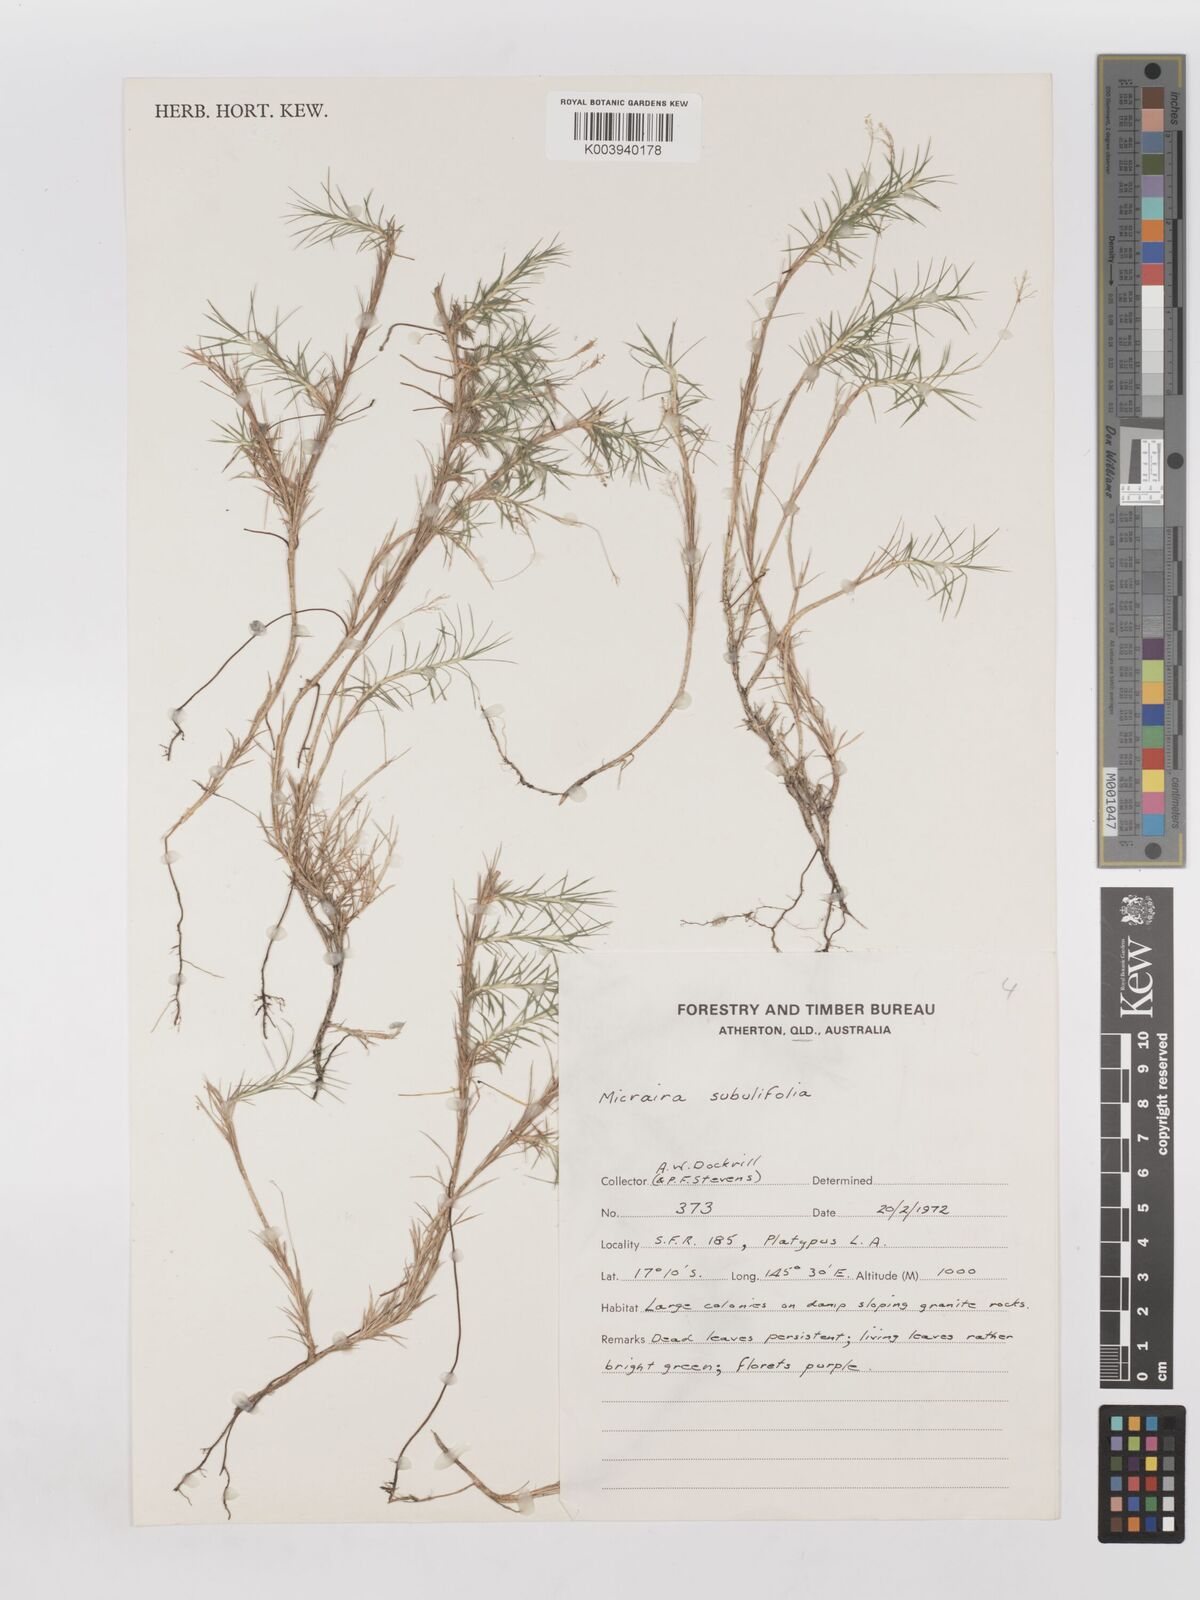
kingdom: Plantae
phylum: Tracheophyta
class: Liliopsida
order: Poales
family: Poaceae
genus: Micraira
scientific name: Micraira subulifolia
